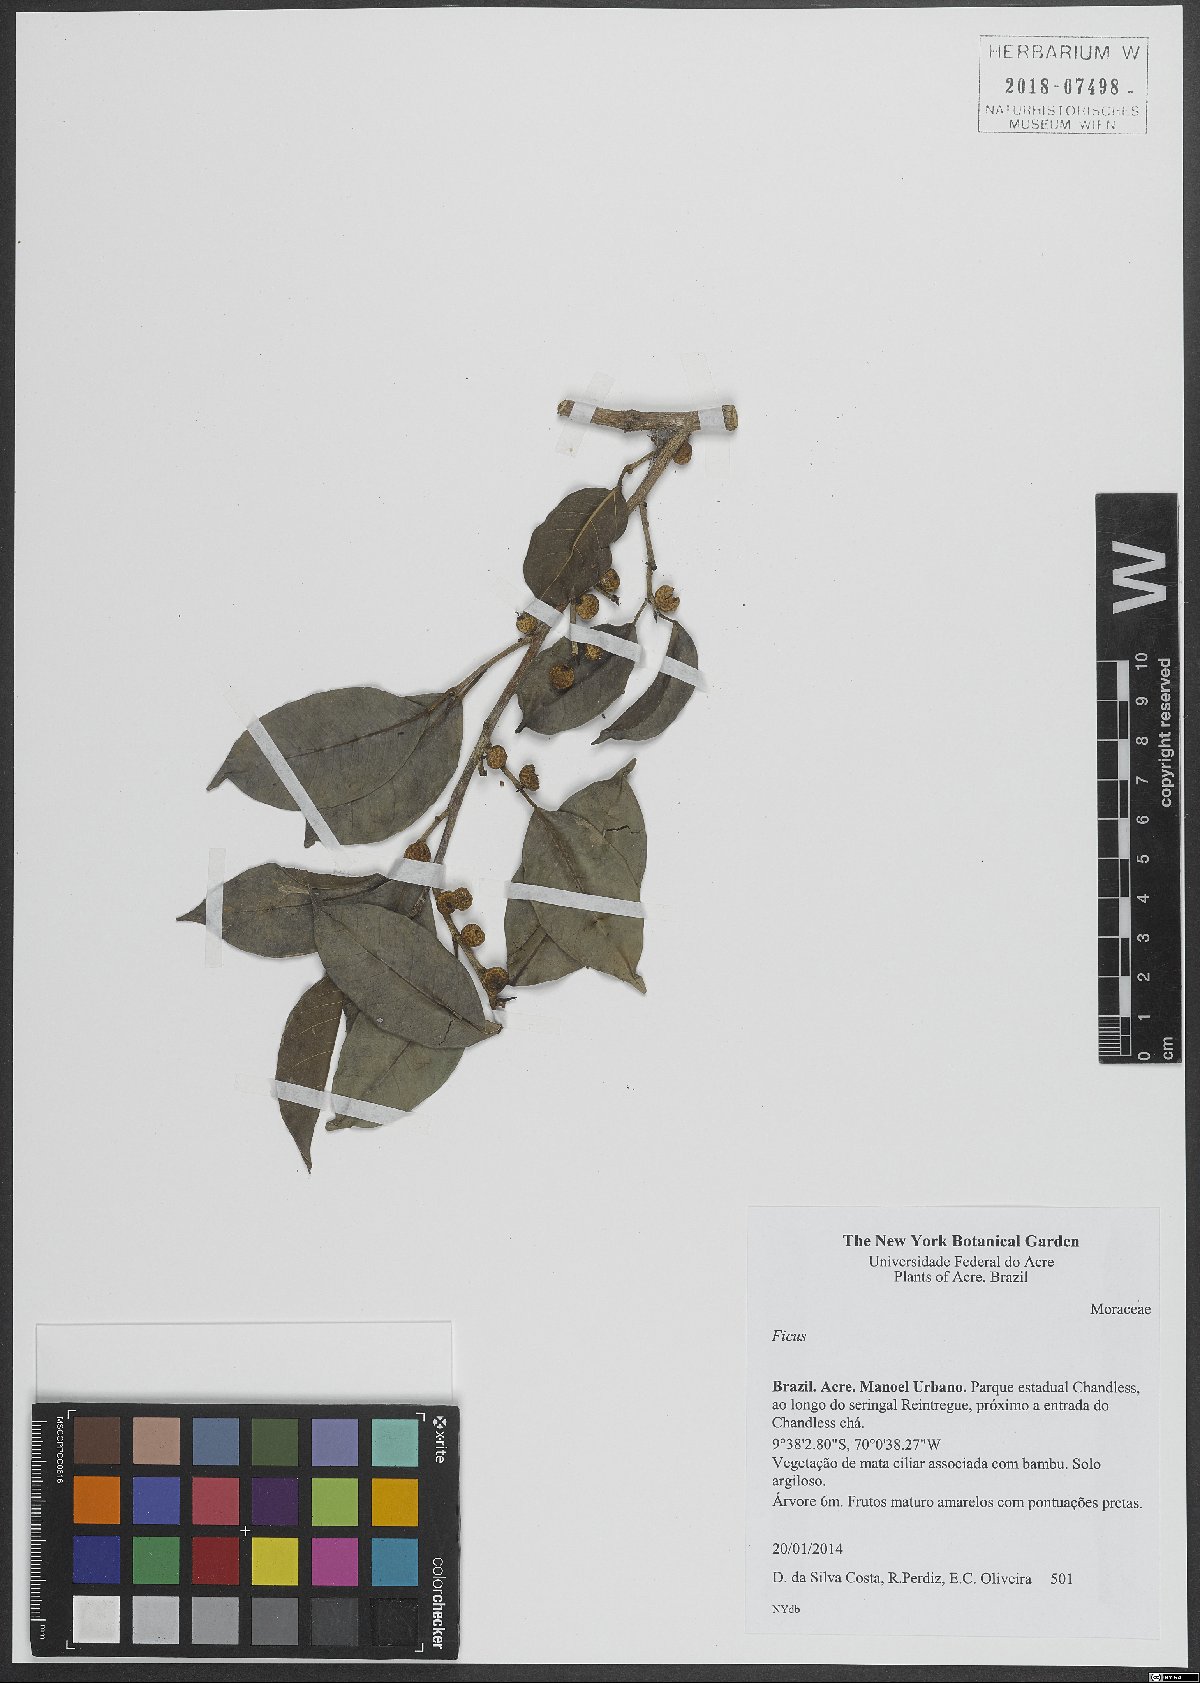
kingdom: Plantae
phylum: Tracheophyta
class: Magnoliopsida
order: Rosales
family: Moraceae
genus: Ficus
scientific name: Ficus
